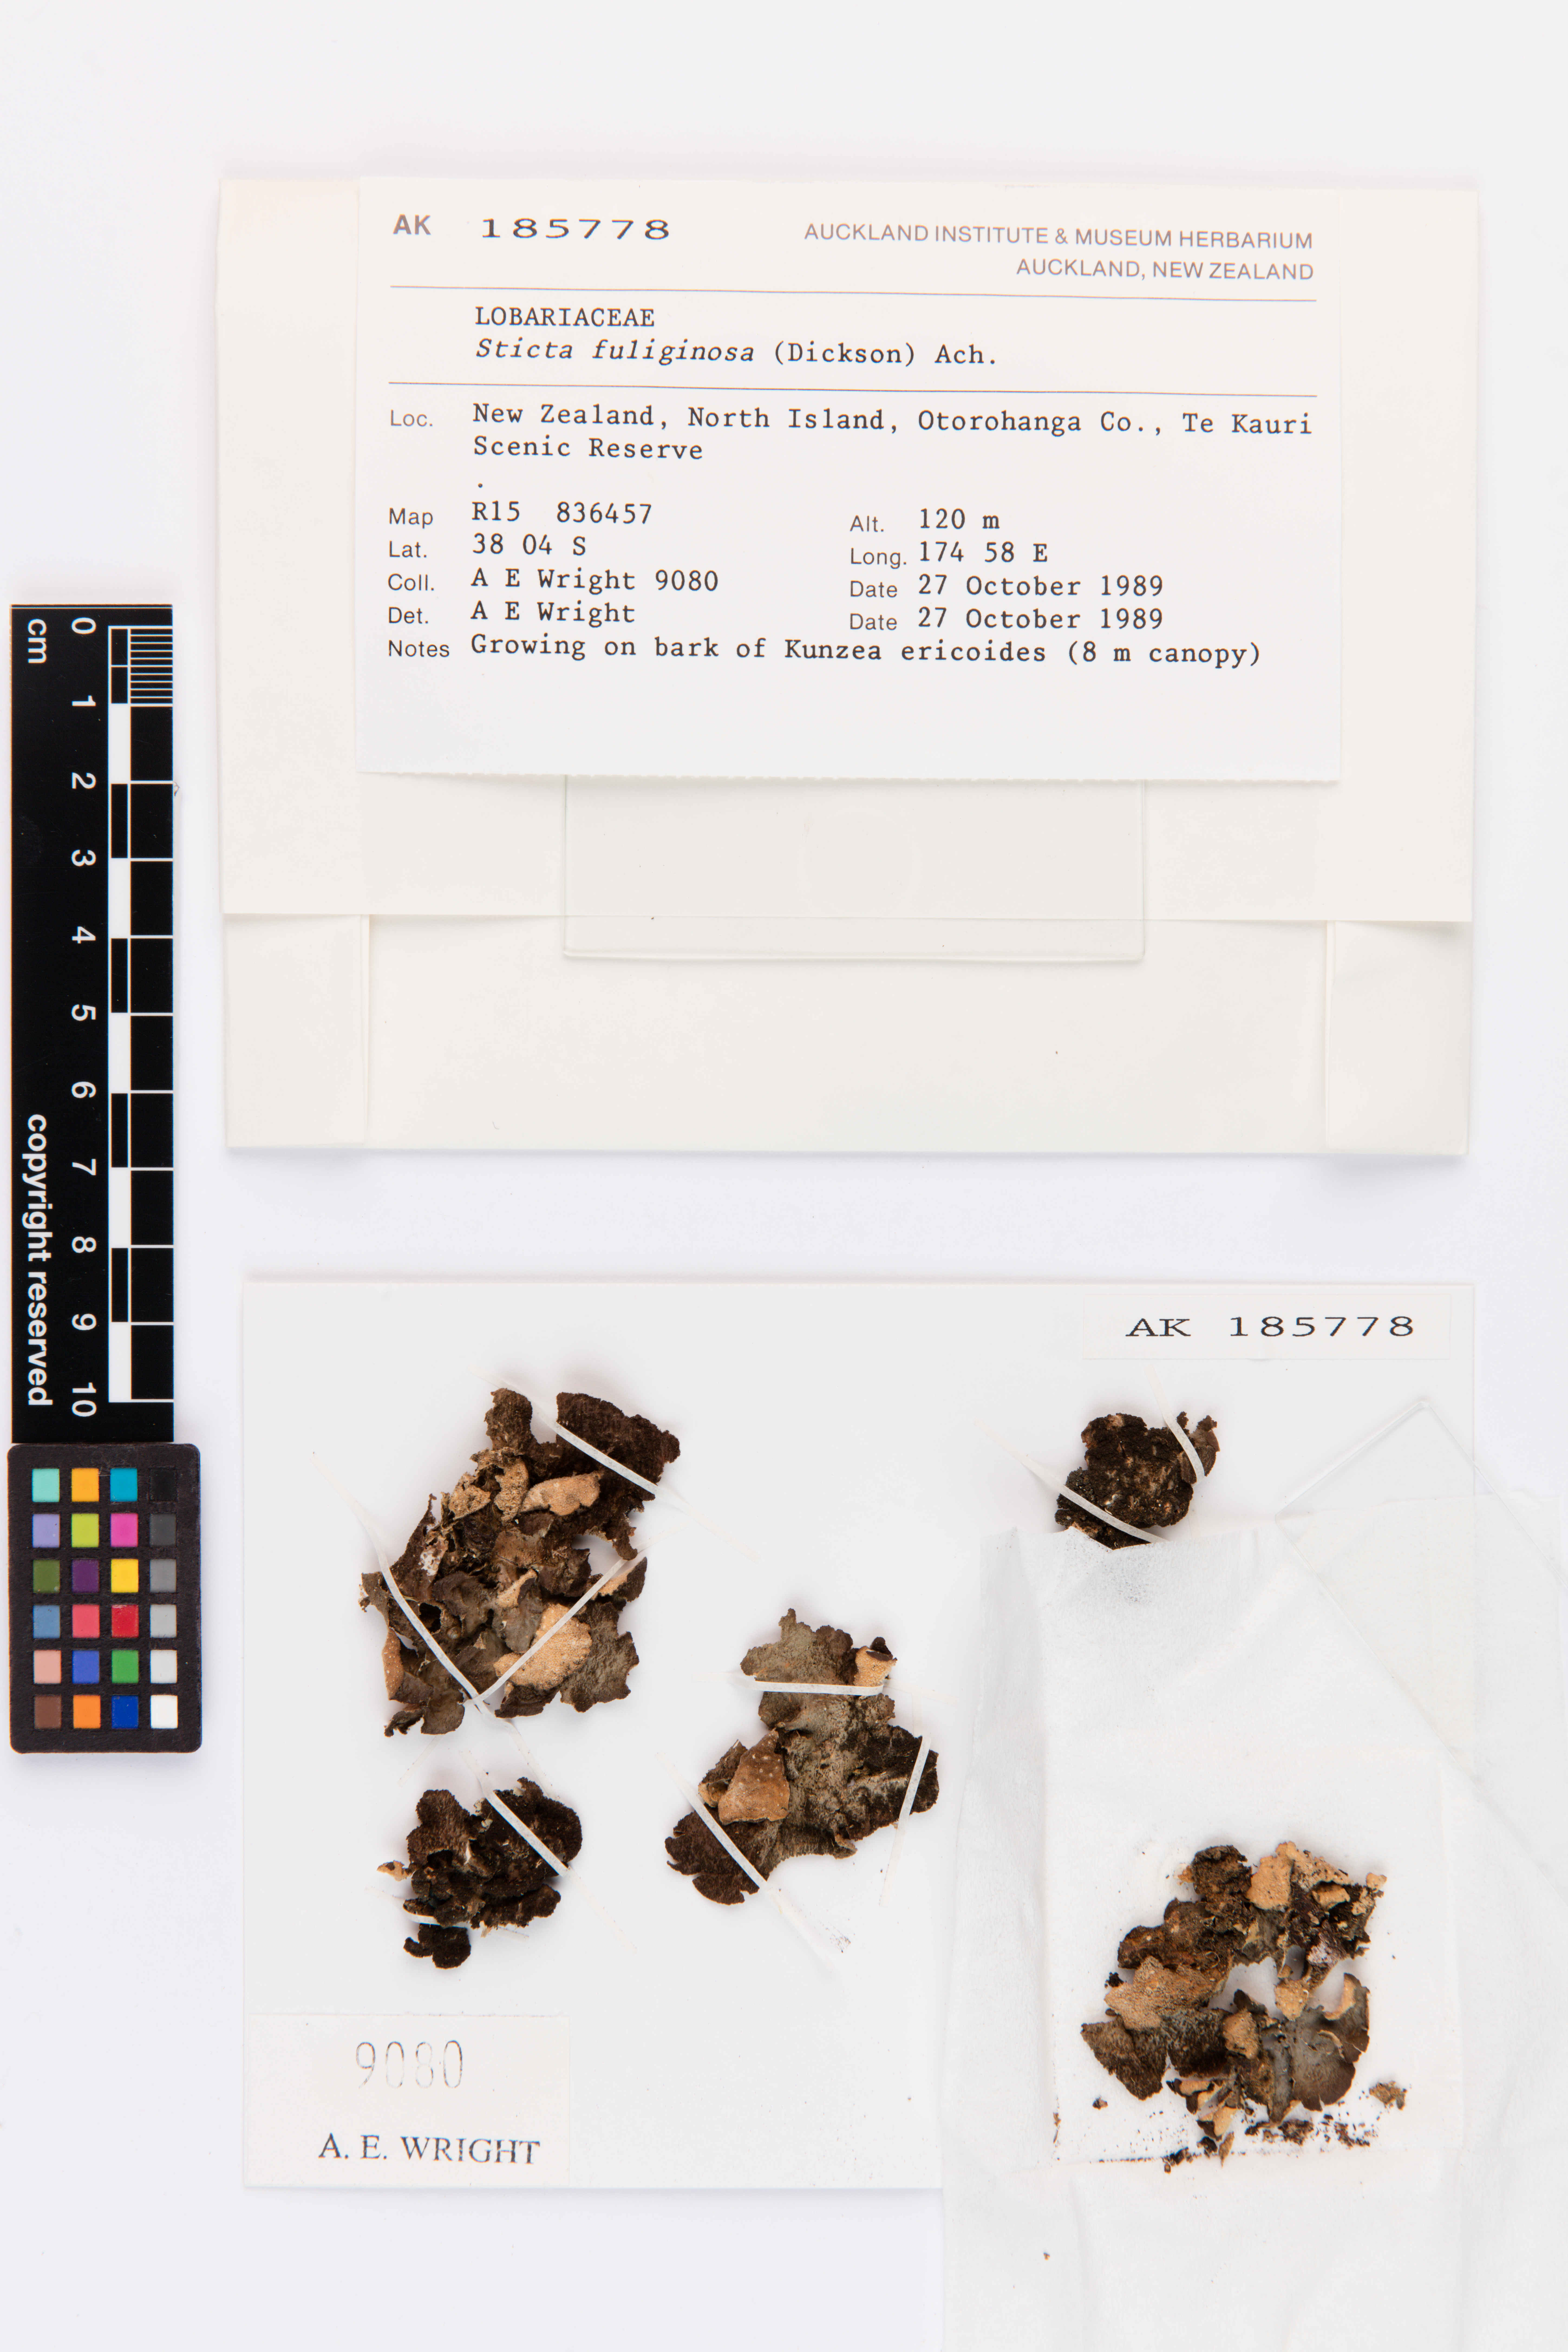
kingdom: Fungi
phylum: Ascomycota
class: Lecanoromycetes
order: Peltigerales
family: Lobariaceae
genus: Sticta
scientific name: Sticta fuliginosa
